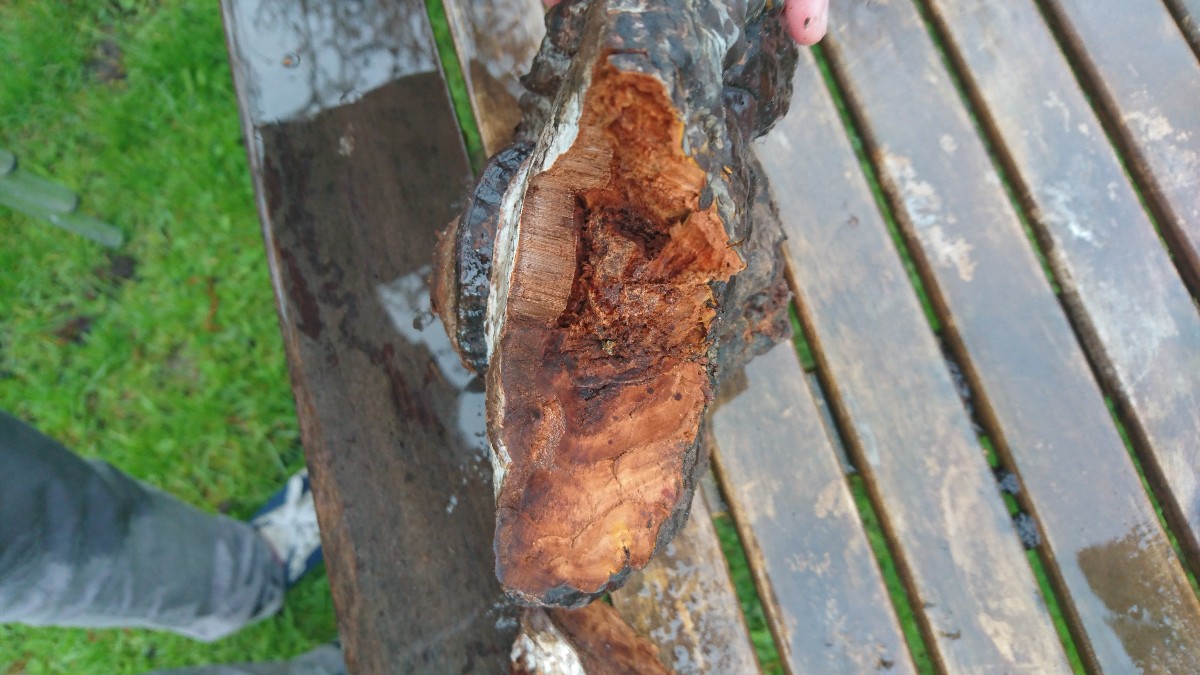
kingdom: Fungi
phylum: Basidiomycota
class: Agaricomycetes
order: Polyporales
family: Polyporaceae
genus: Ganoderma
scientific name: Ganoderma applanatum
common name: flad lakporesvamp
